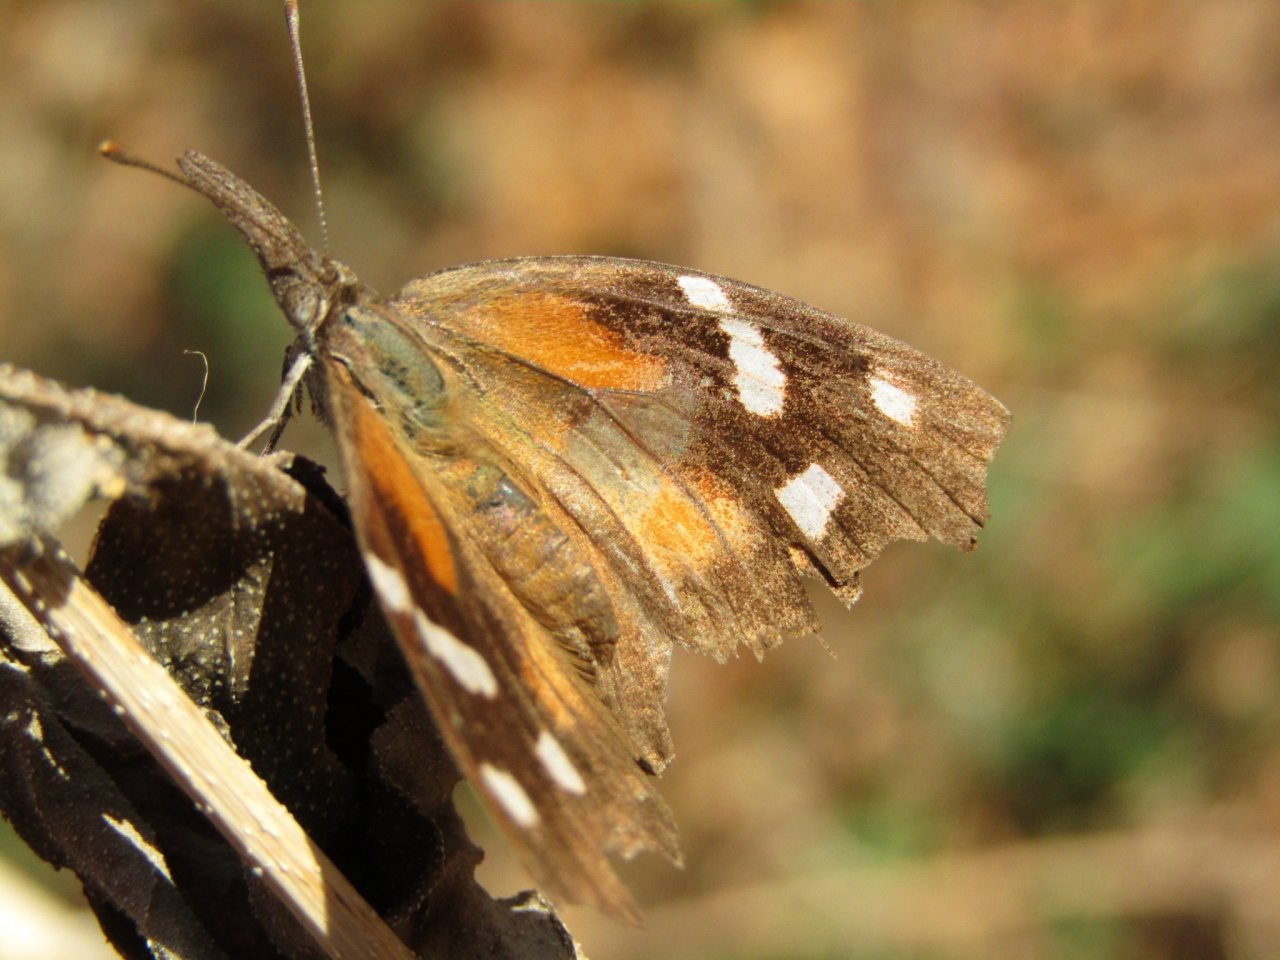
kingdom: Animalia
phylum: Arthropoda
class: Insecta
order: Lepidoptera
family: Nymphalidae
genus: Libytheana
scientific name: Libytheana carinenta
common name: American Snout
